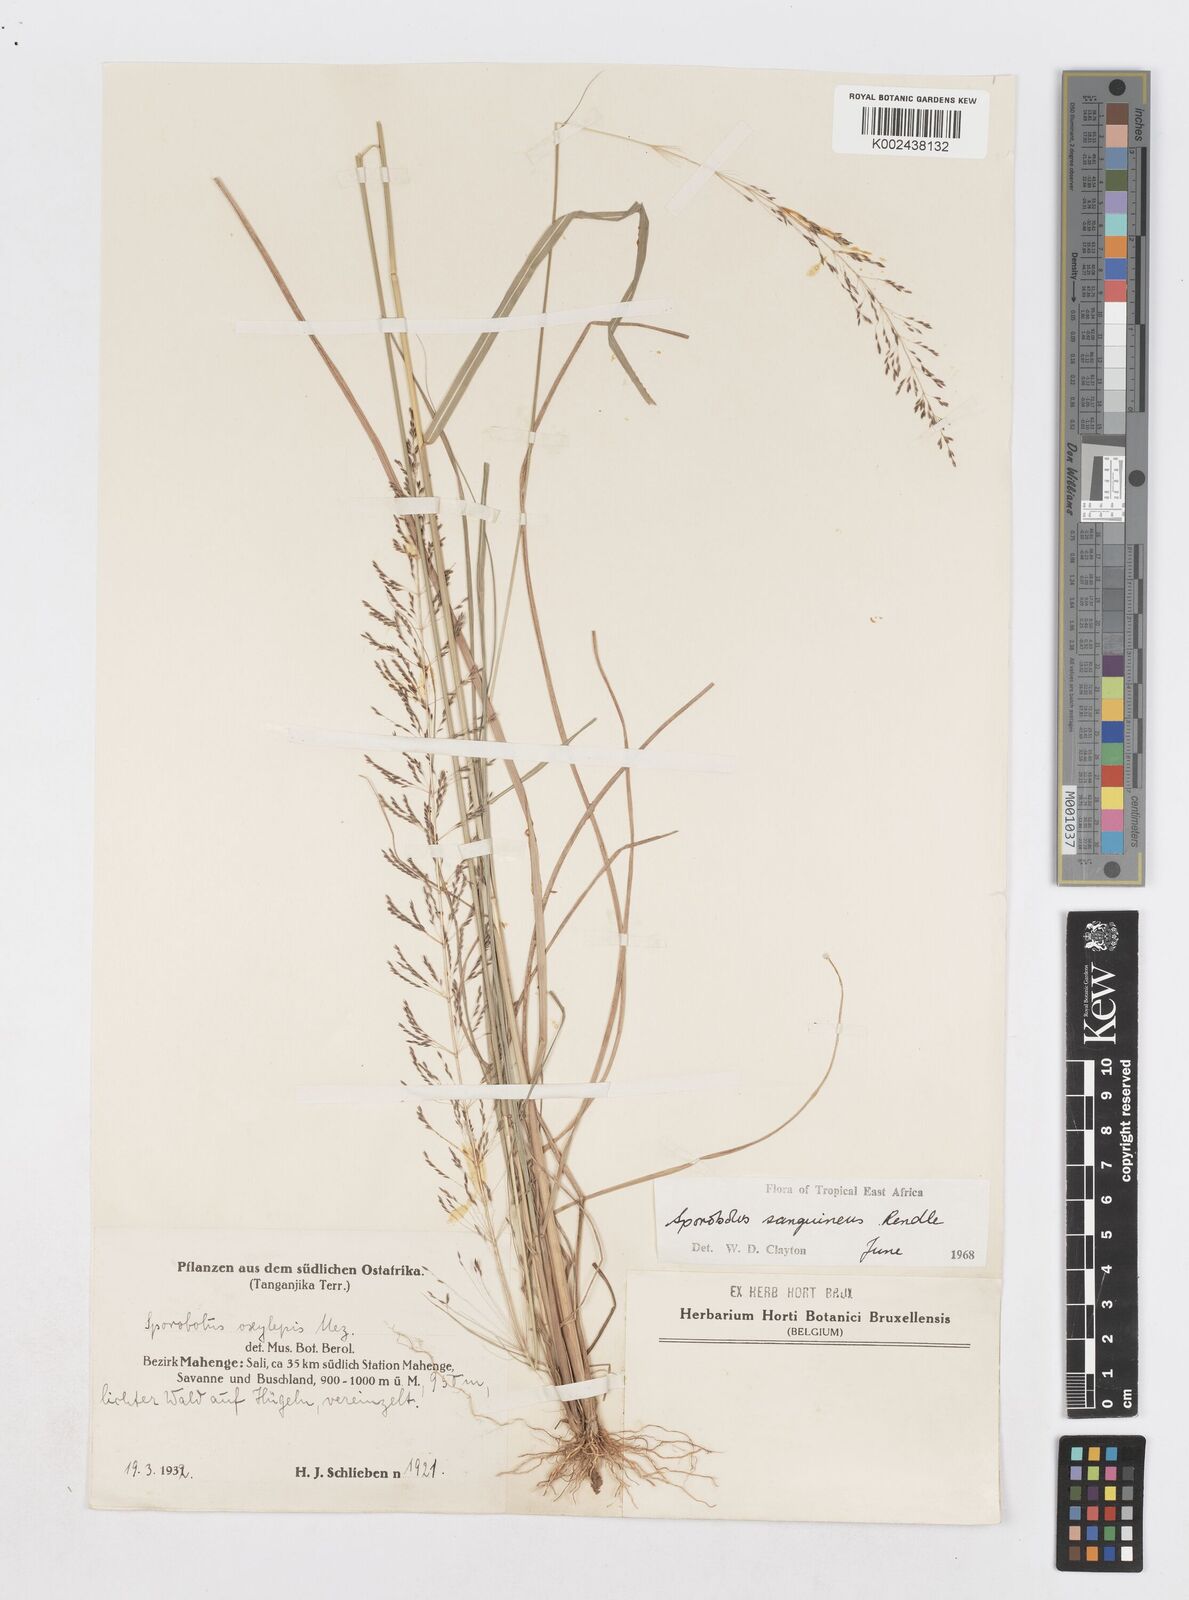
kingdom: Plantae
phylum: Tracheophyta
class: Liliopsida
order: Poales
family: Poaceae
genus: Sporobolus
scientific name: Sporobolus sanguineus
